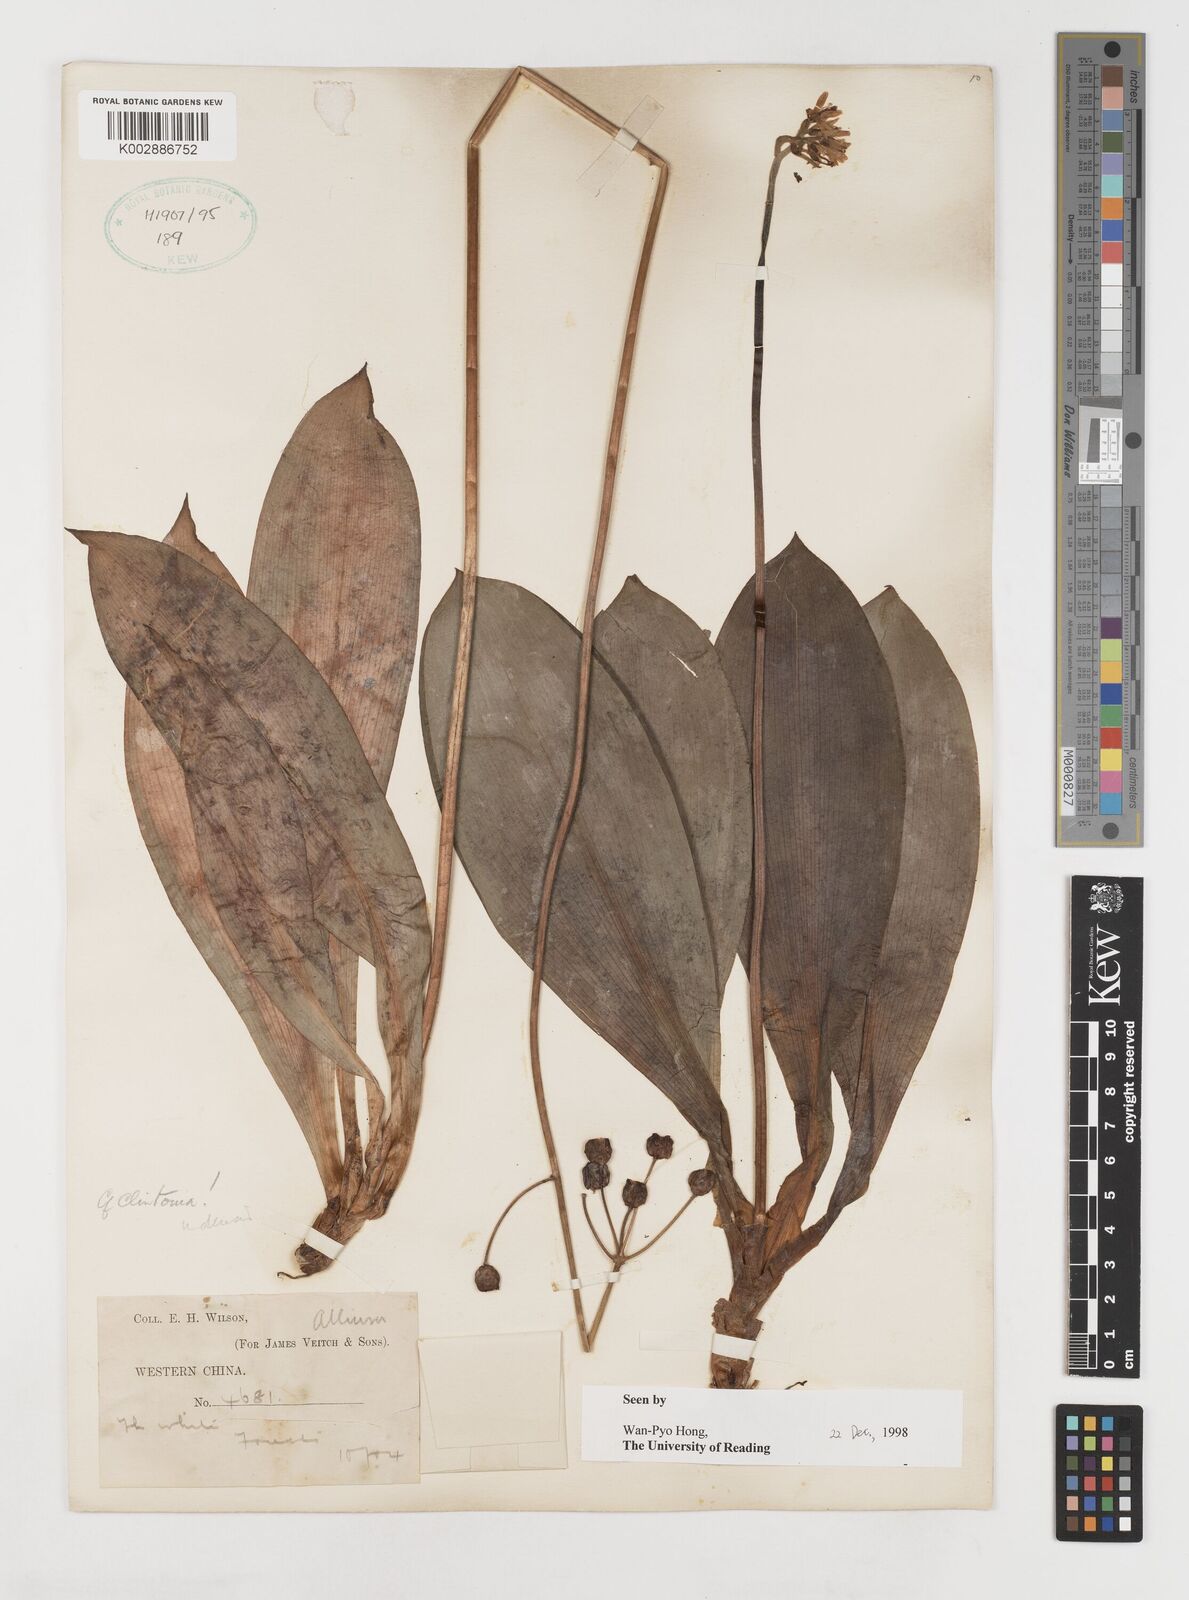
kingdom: Plantae
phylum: Tracheophyta
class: Liliopsida
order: Liliales
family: Liliaceae
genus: Clintonia
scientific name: Clintonia udensis
